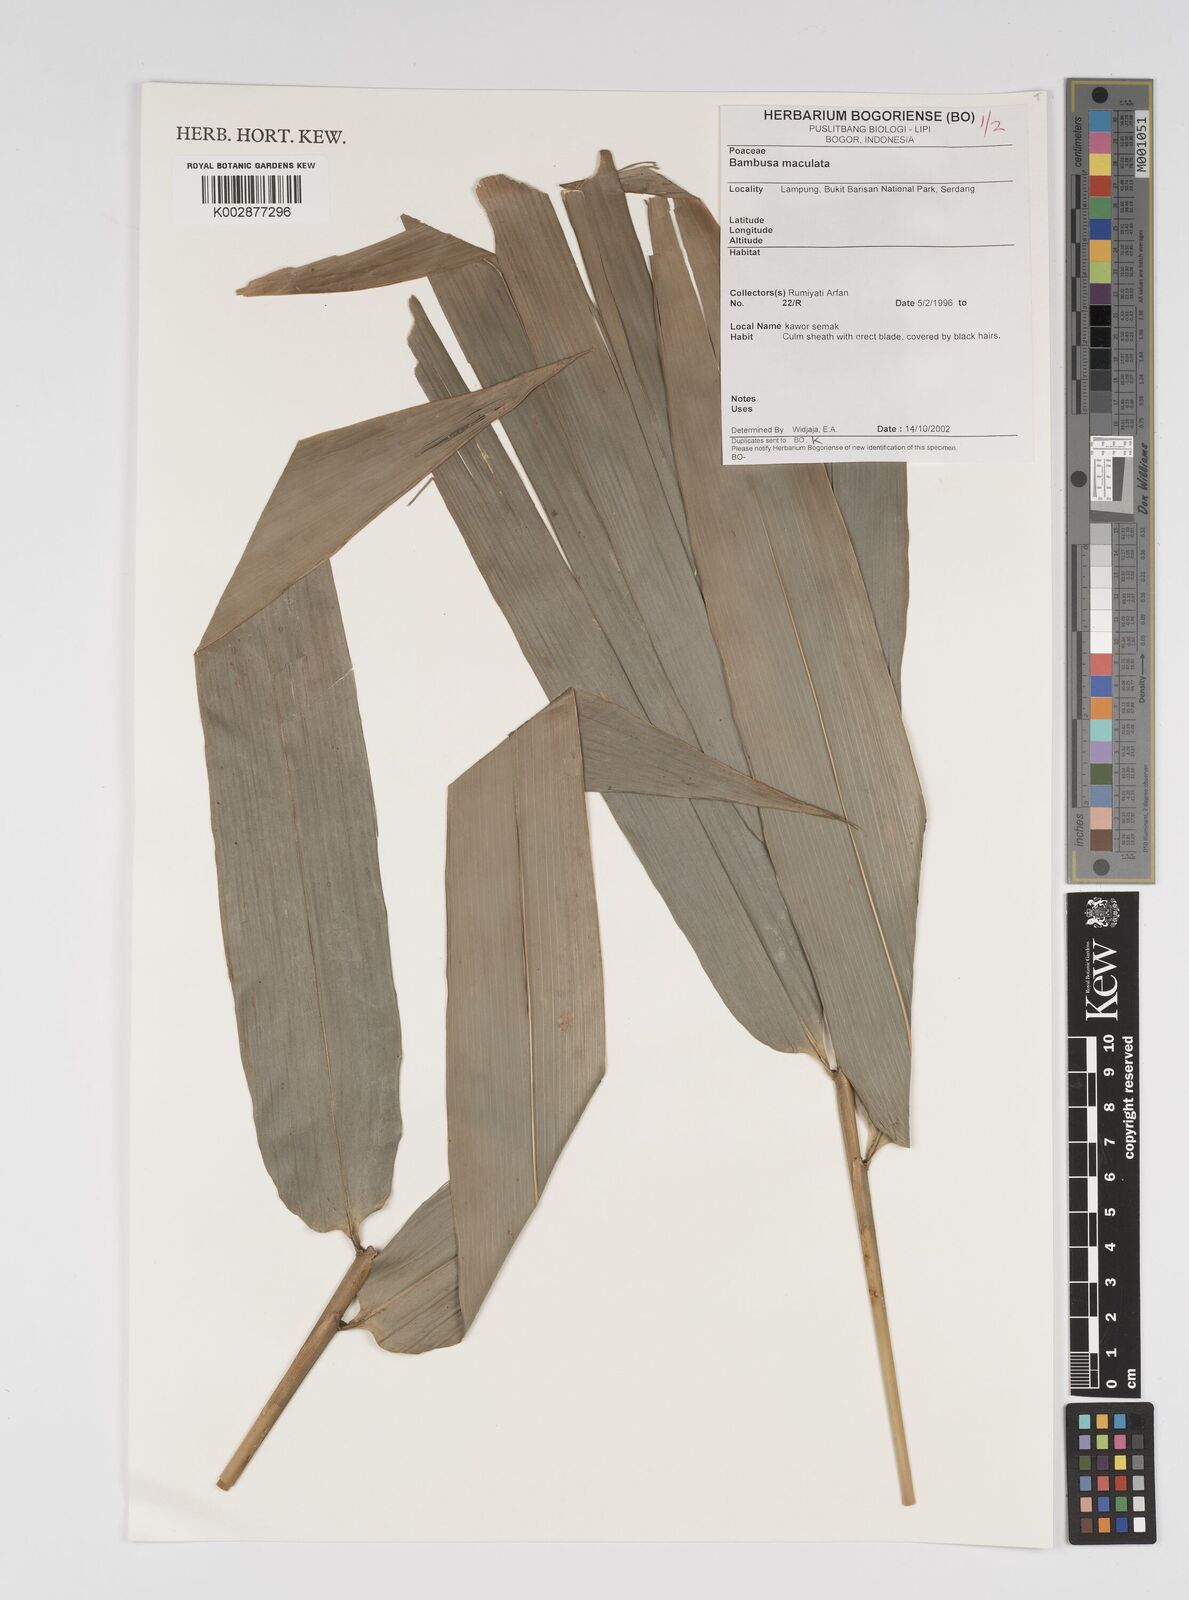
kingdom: Plantae
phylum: Tracheophyta
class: Liliopsida
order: Poales
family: Poaceae
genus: Bambusa
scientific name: Bambusa maculata
